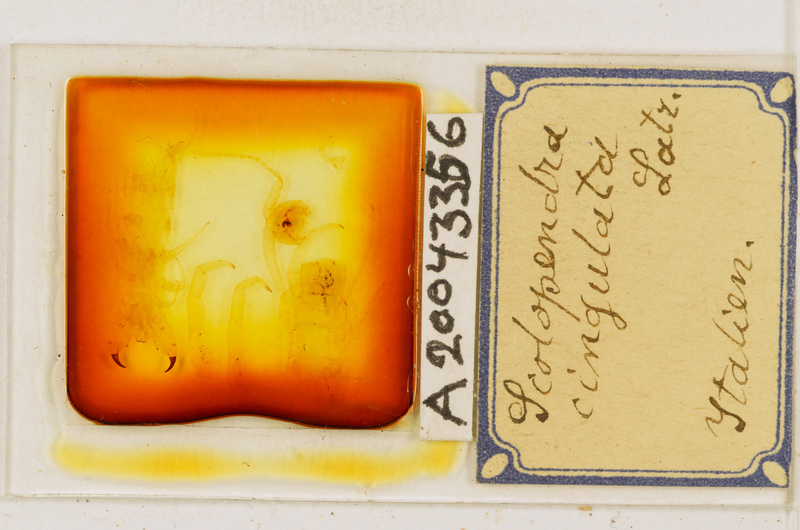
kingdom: Animalia
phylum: Arthropoda
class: Chilopoda
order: Scolopendromorpha
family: Scolopendridae
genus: Scolopendra
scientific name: Scolopendra cingulata
